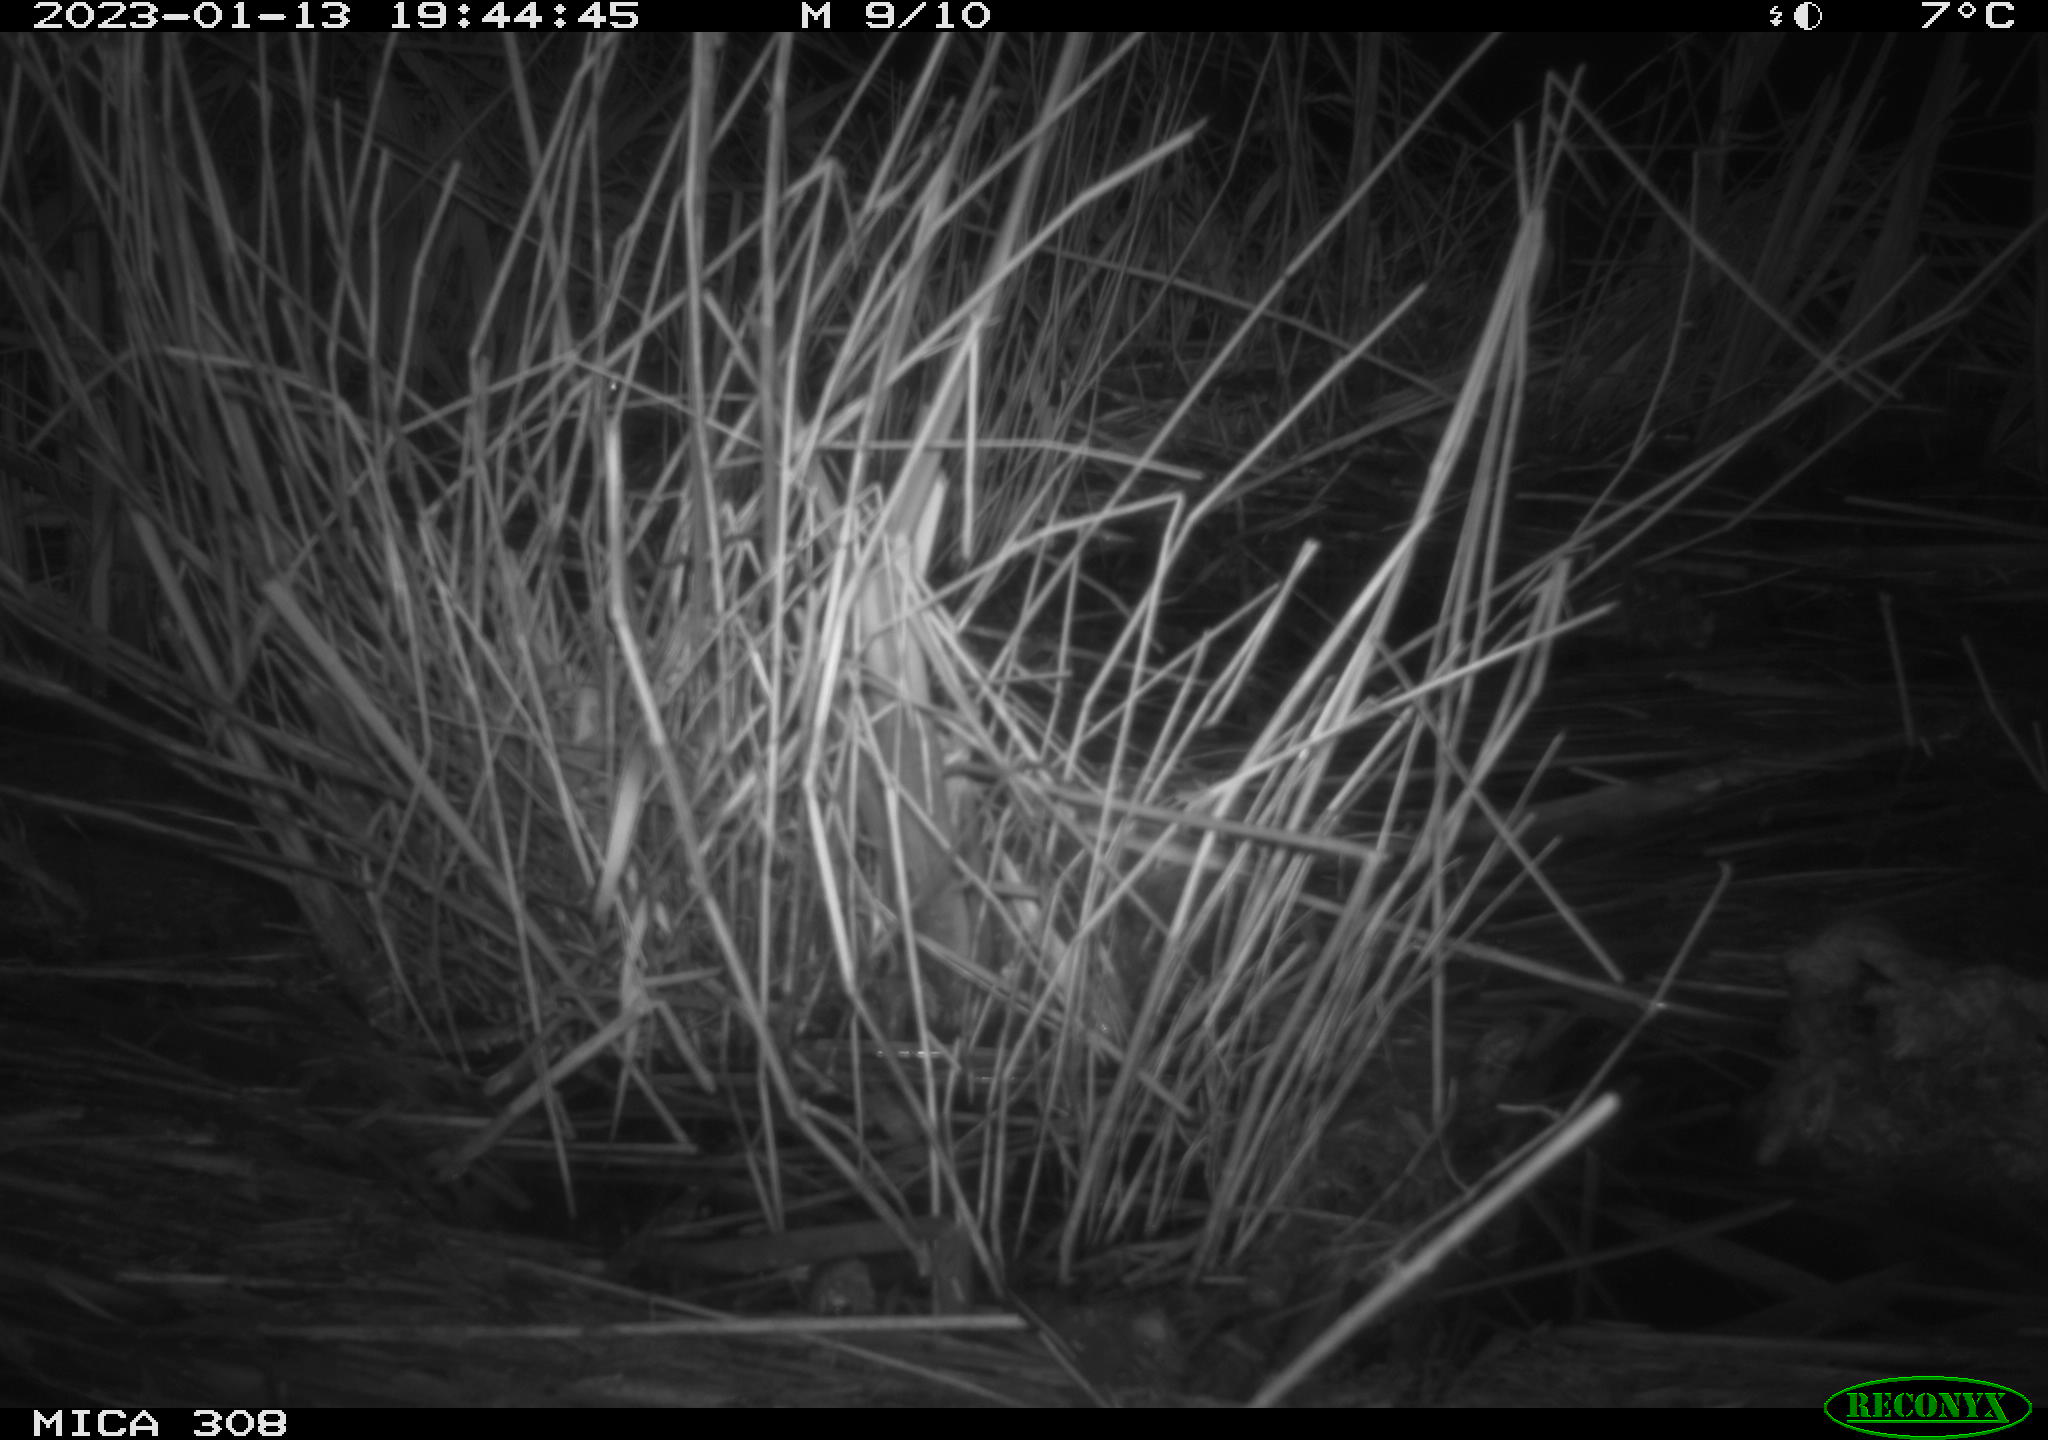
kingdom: Animalia
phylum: Chordata
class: Mammalia
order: Rodentia
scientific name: Rodentia
